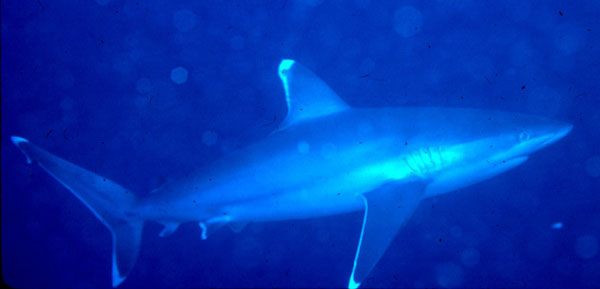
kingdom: Animalia
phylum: Chordata
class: Elasmobranchii
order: Carcharhiniformes
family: Carcharhinidae
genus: Carcharhinus
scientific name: Carcharhinus albimarginatus
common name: Silvertip shark
